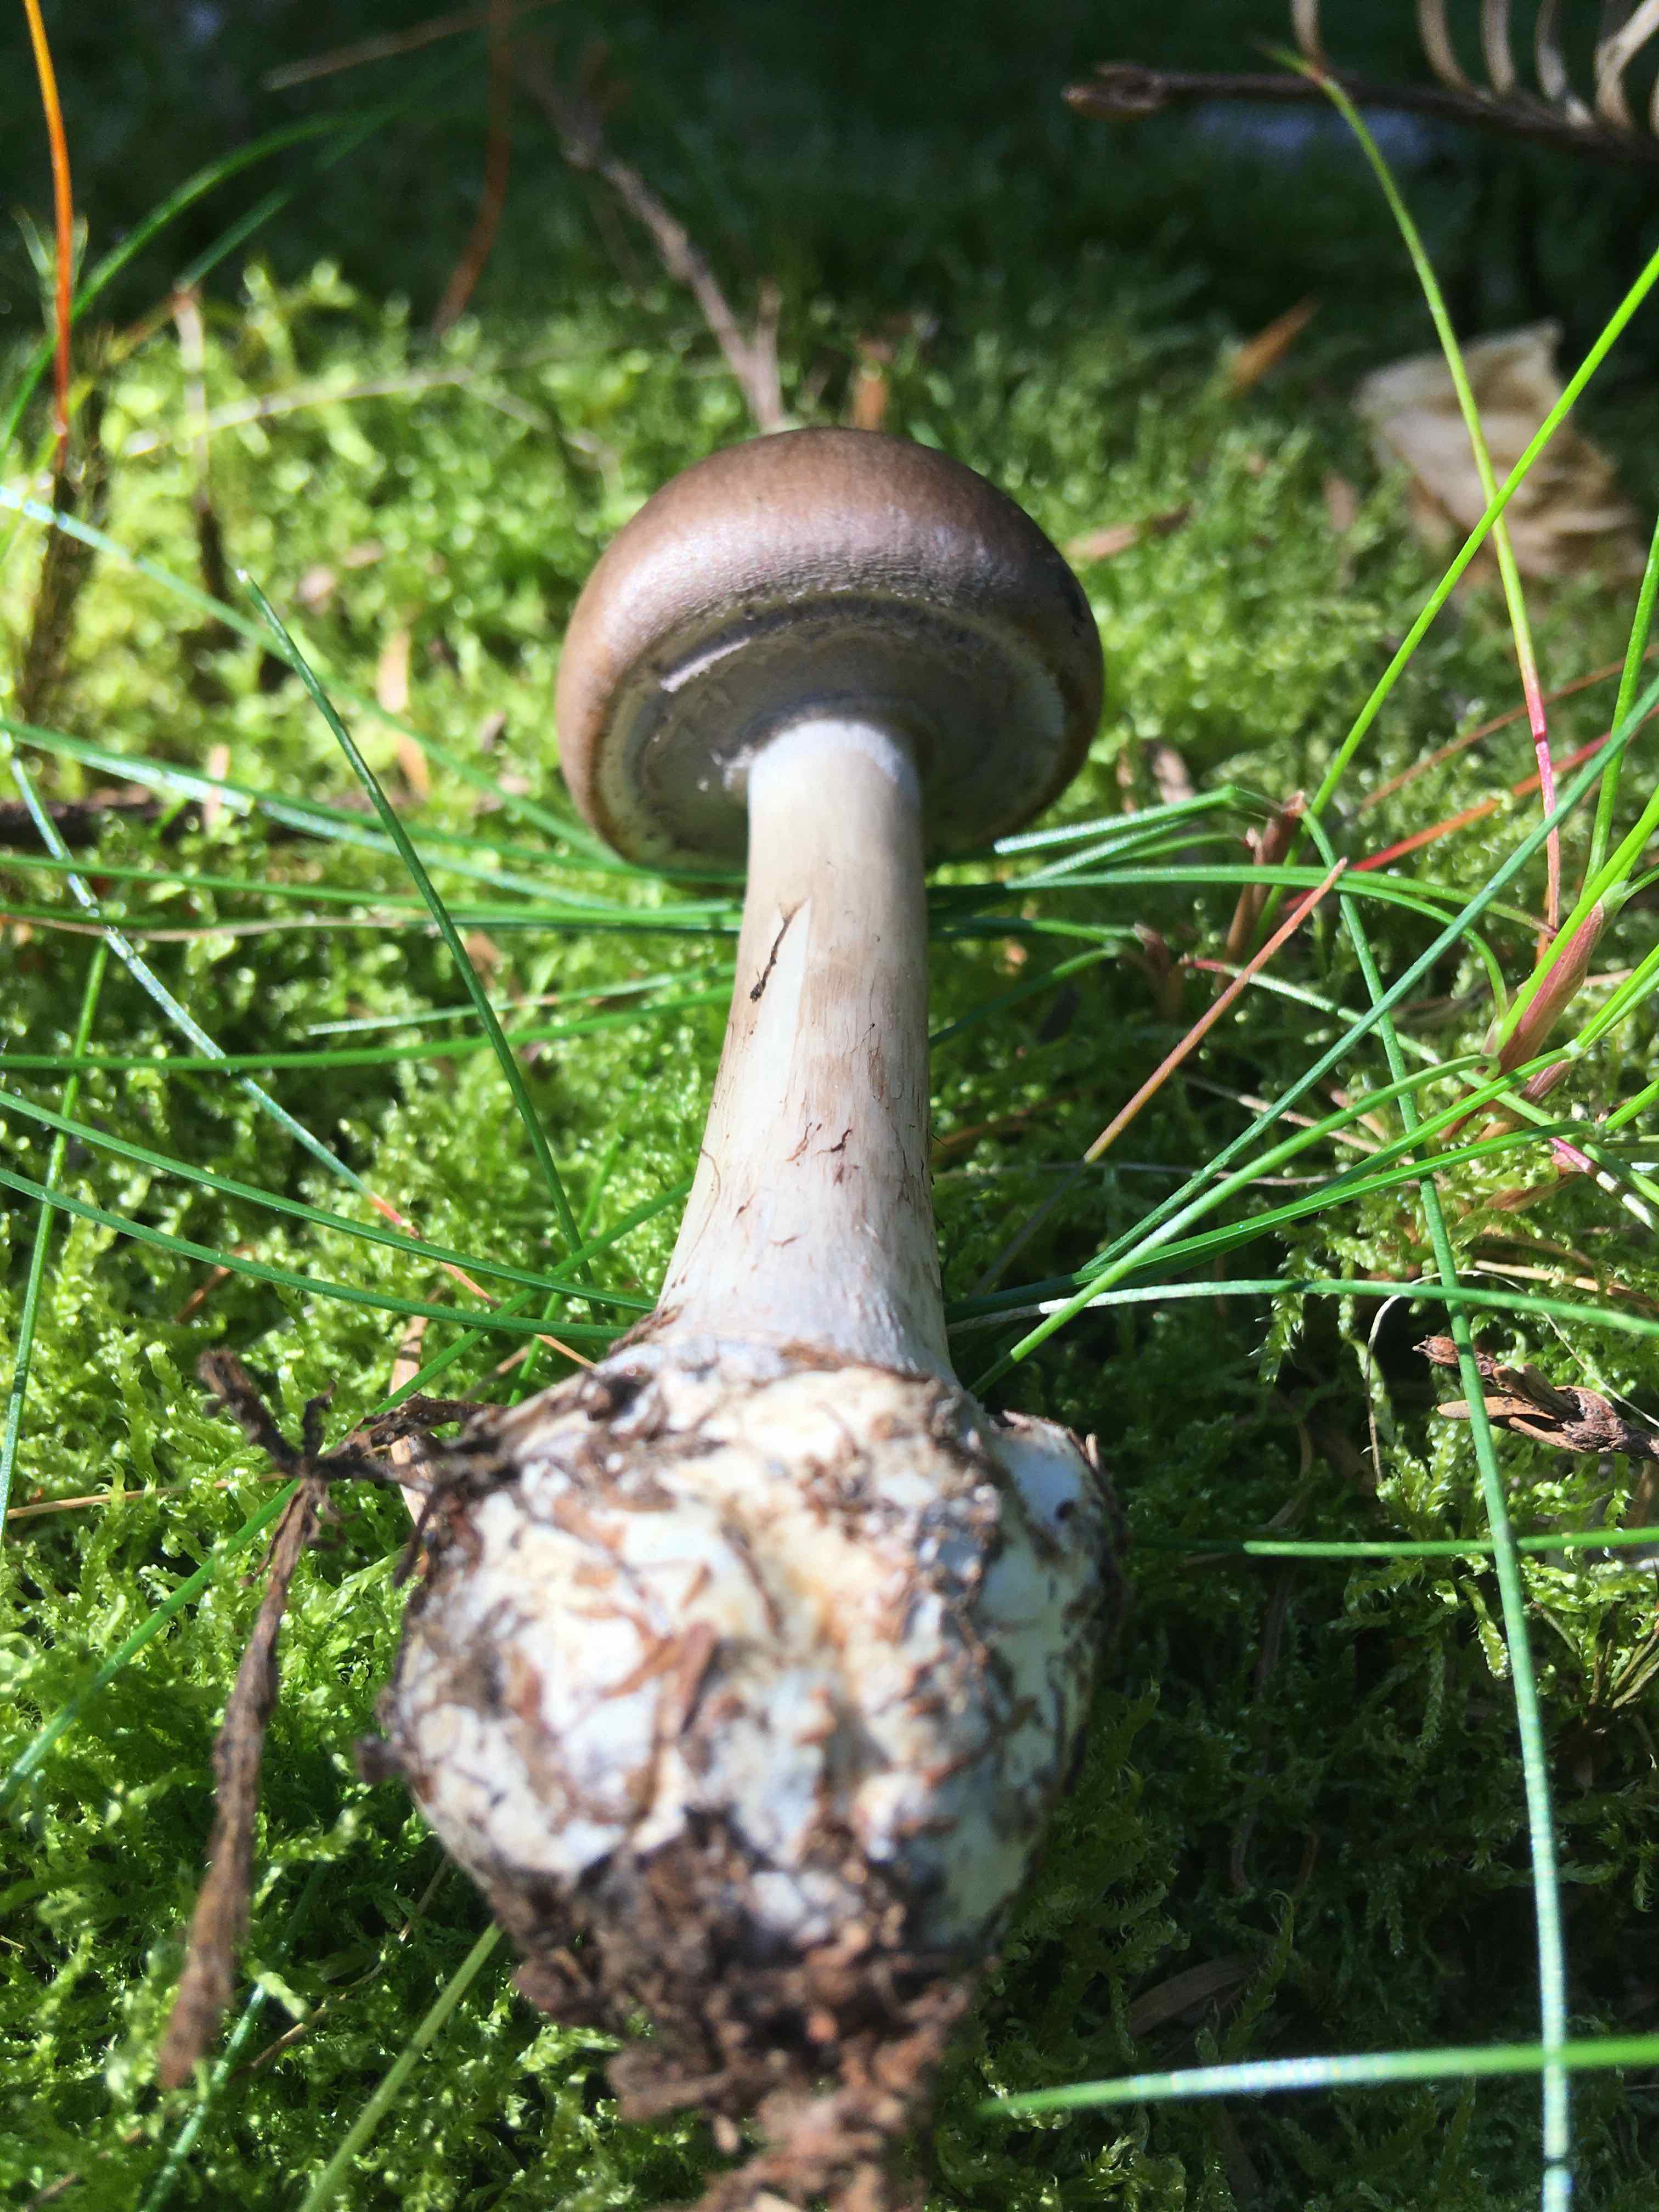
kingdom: Fungi
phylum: Basidiomycota
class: Agaricomycetes
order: Agaricales
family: Amanitaceae
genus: Amanita
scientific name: Amanita porphyria
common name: porfyr-fluesvamp
